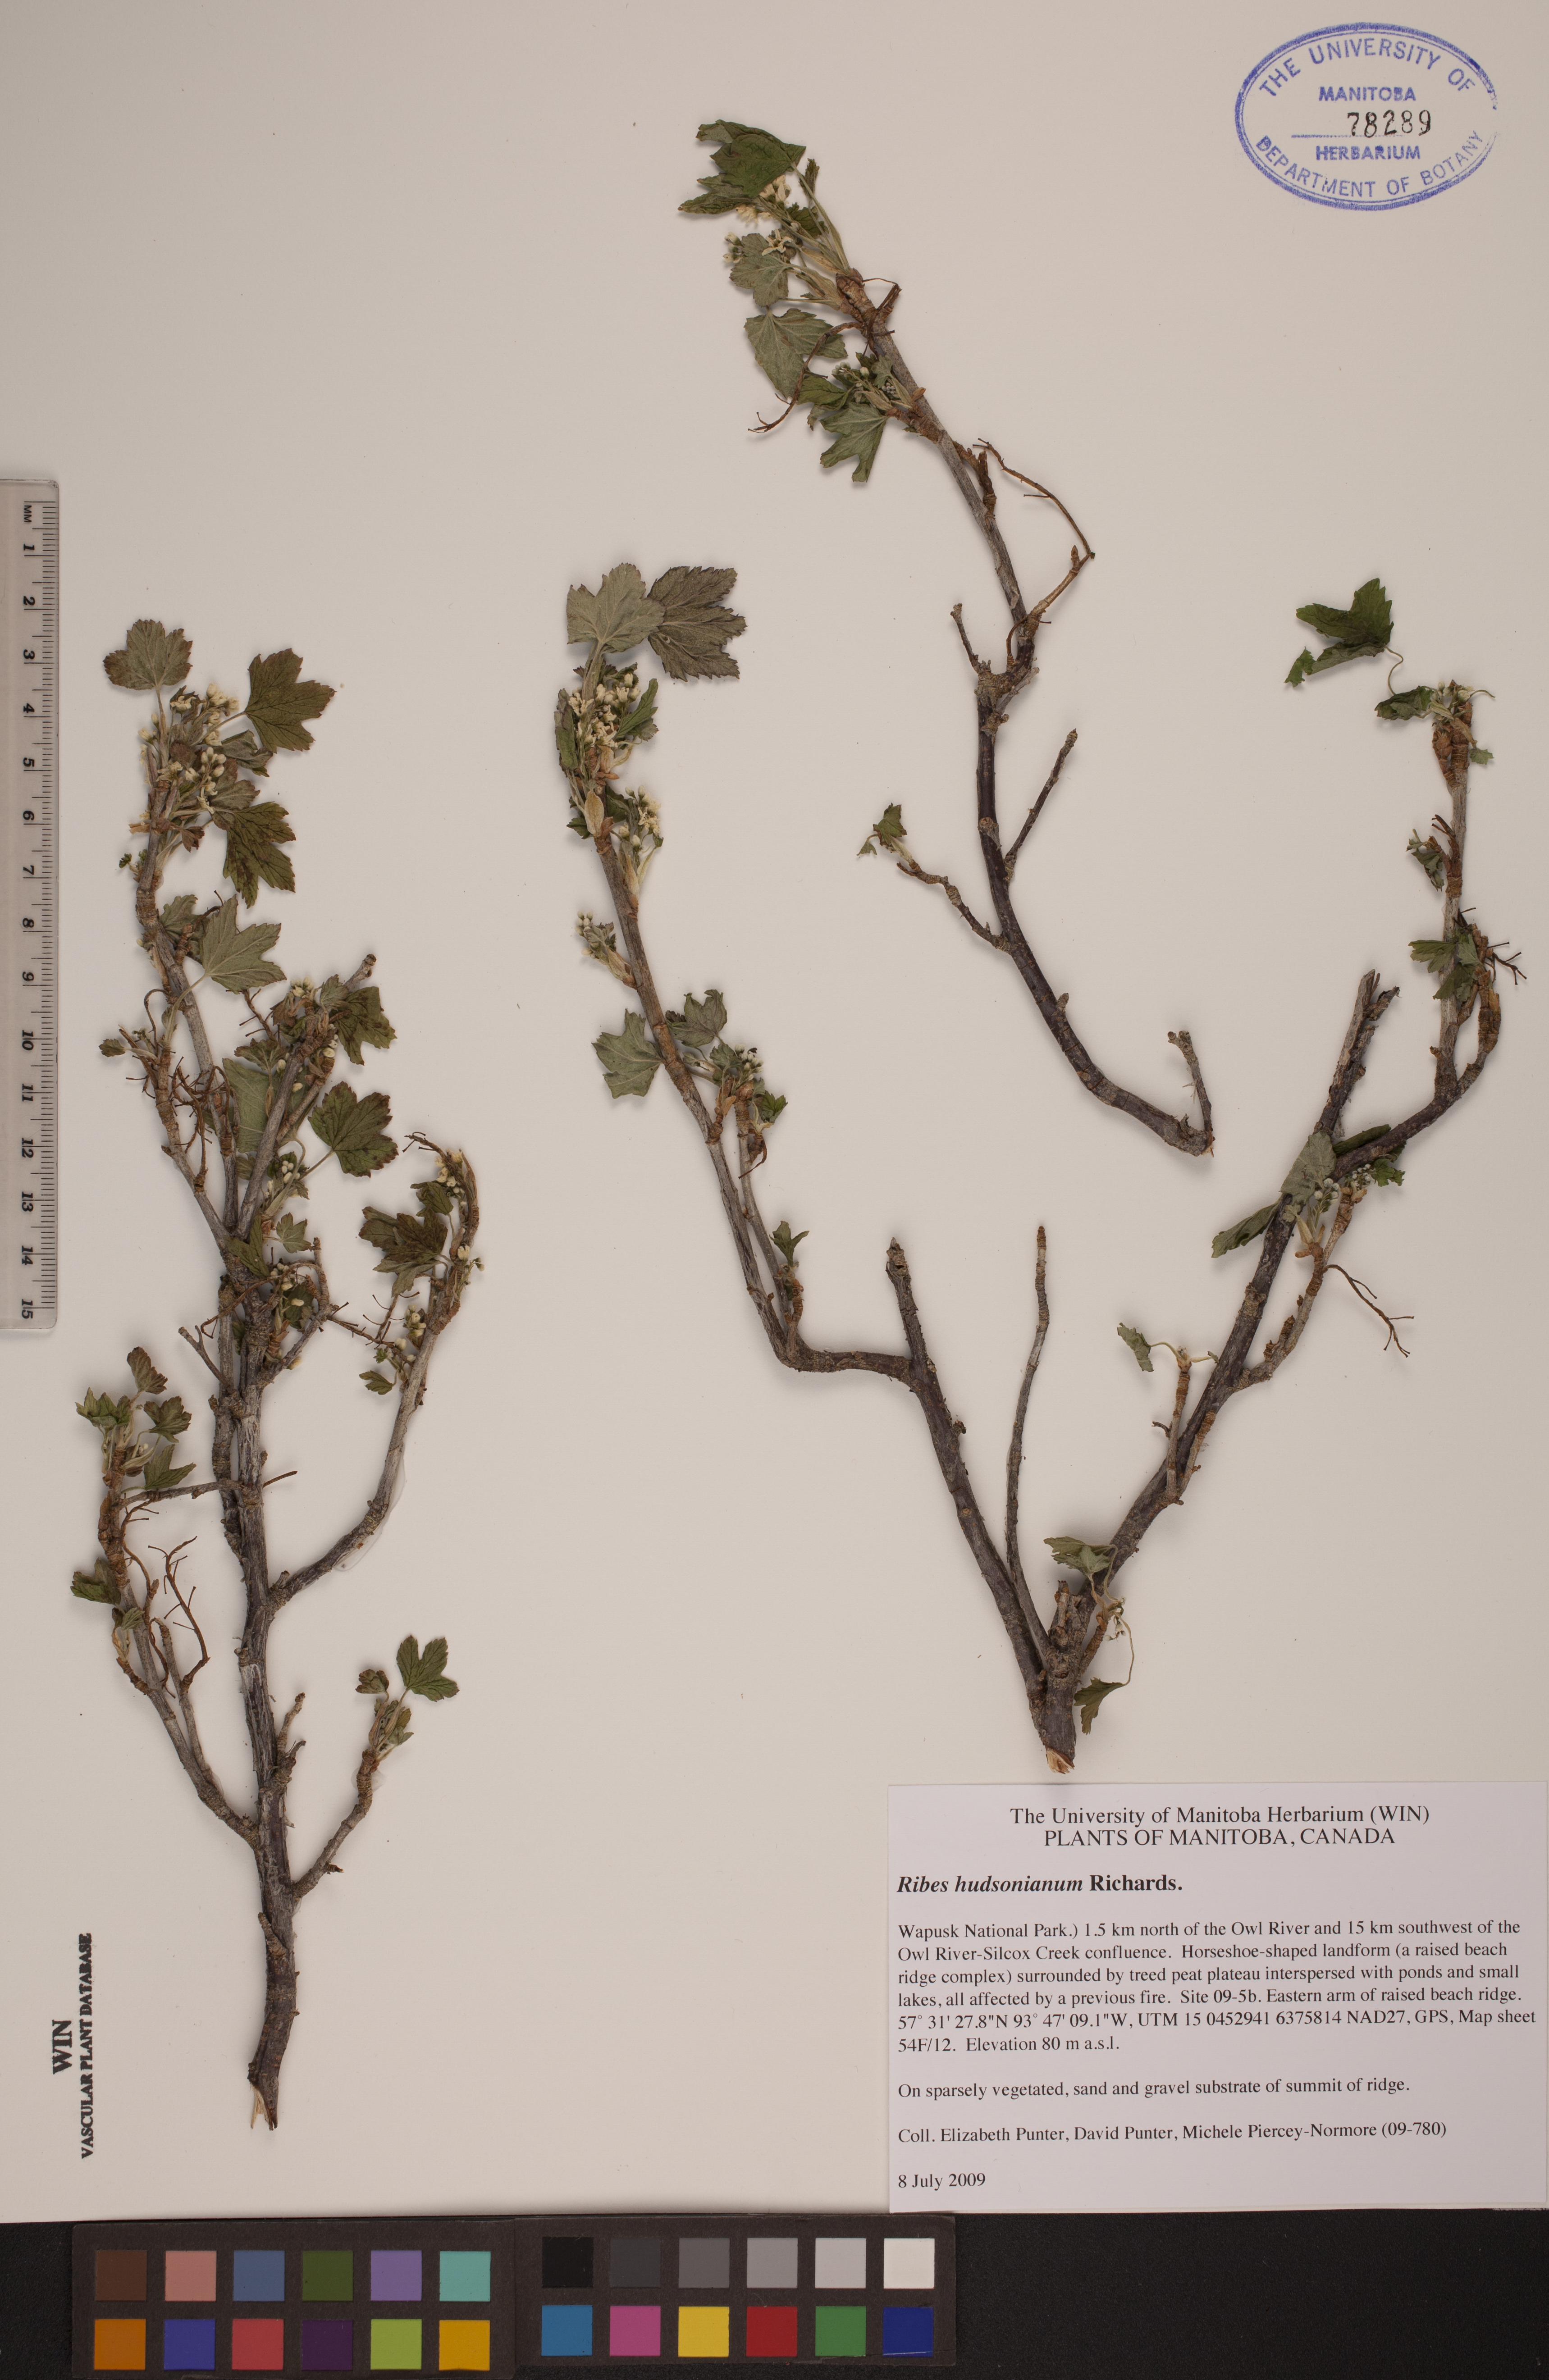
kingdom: Plantae
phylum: Tracheophyta
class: Magnoliopsida
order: Saxifragales
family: Grossulariaceae
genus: Ribes
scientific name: Ribes hudsonianum
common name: Northern black currant
